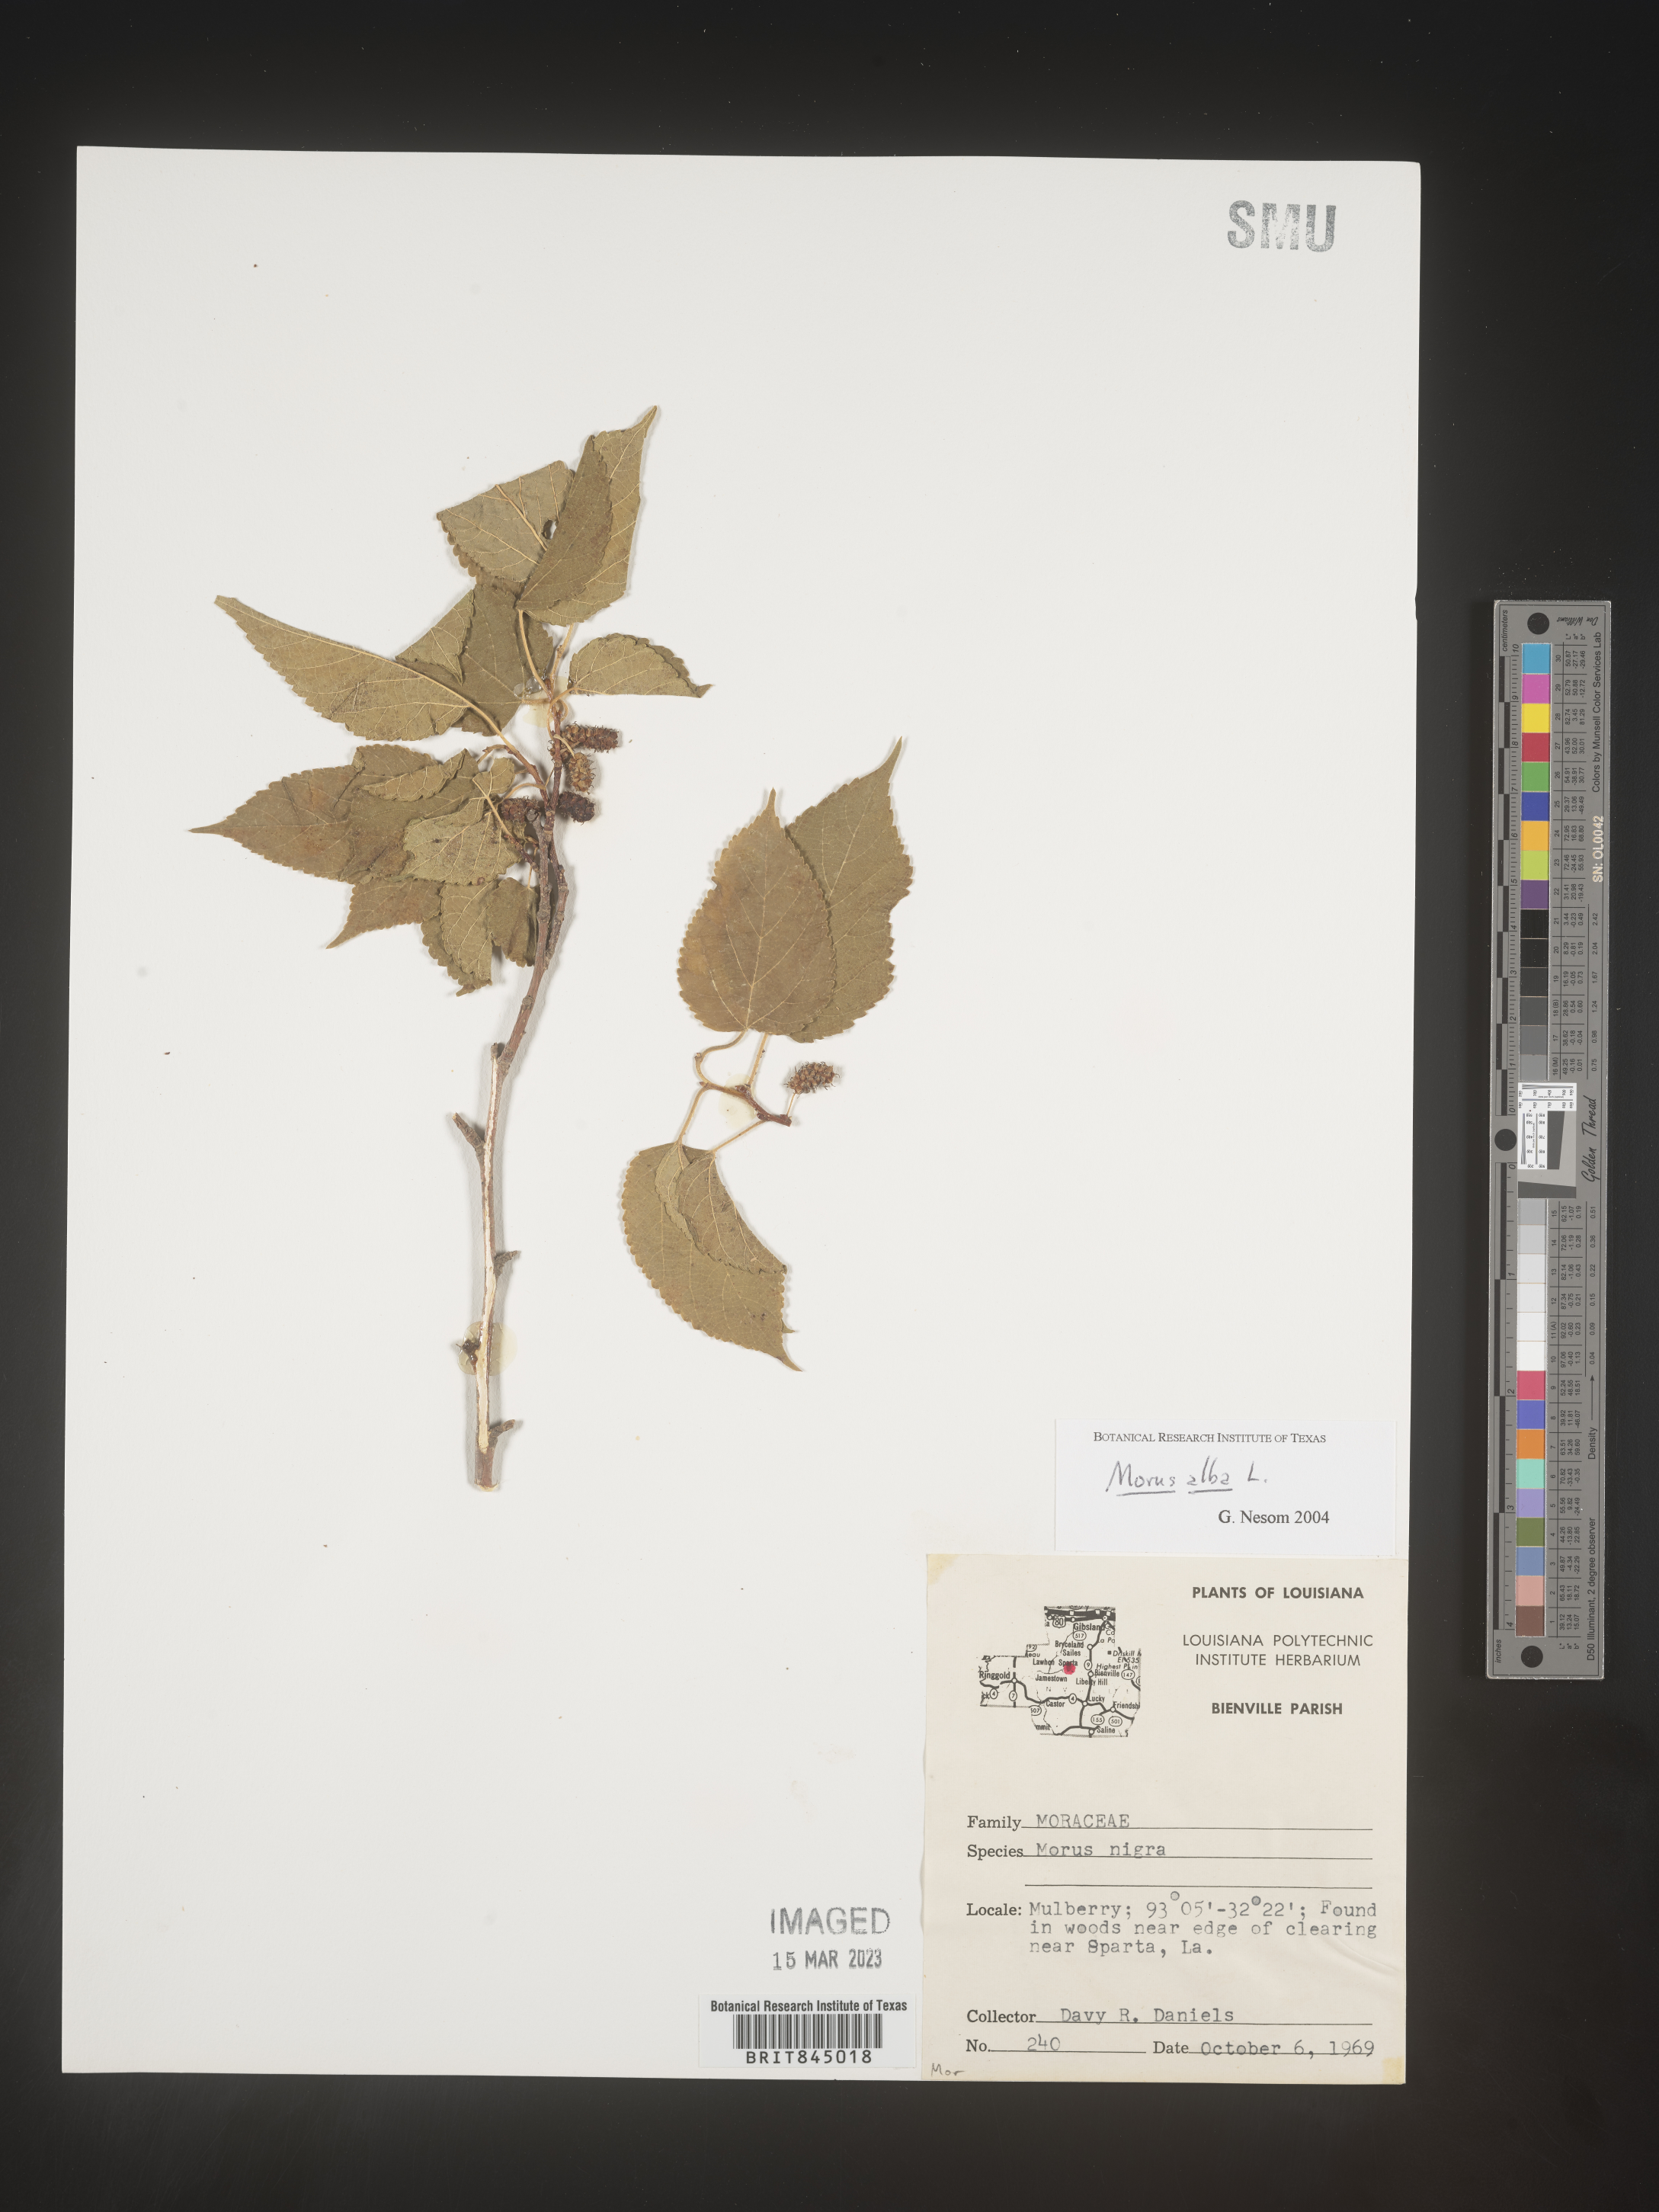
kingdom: Plantae
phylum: Tracheophyta
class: Magnoliopsida
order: Rosales
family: Moraceae
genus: Morus
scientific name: Morus alba
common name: White mulberry
